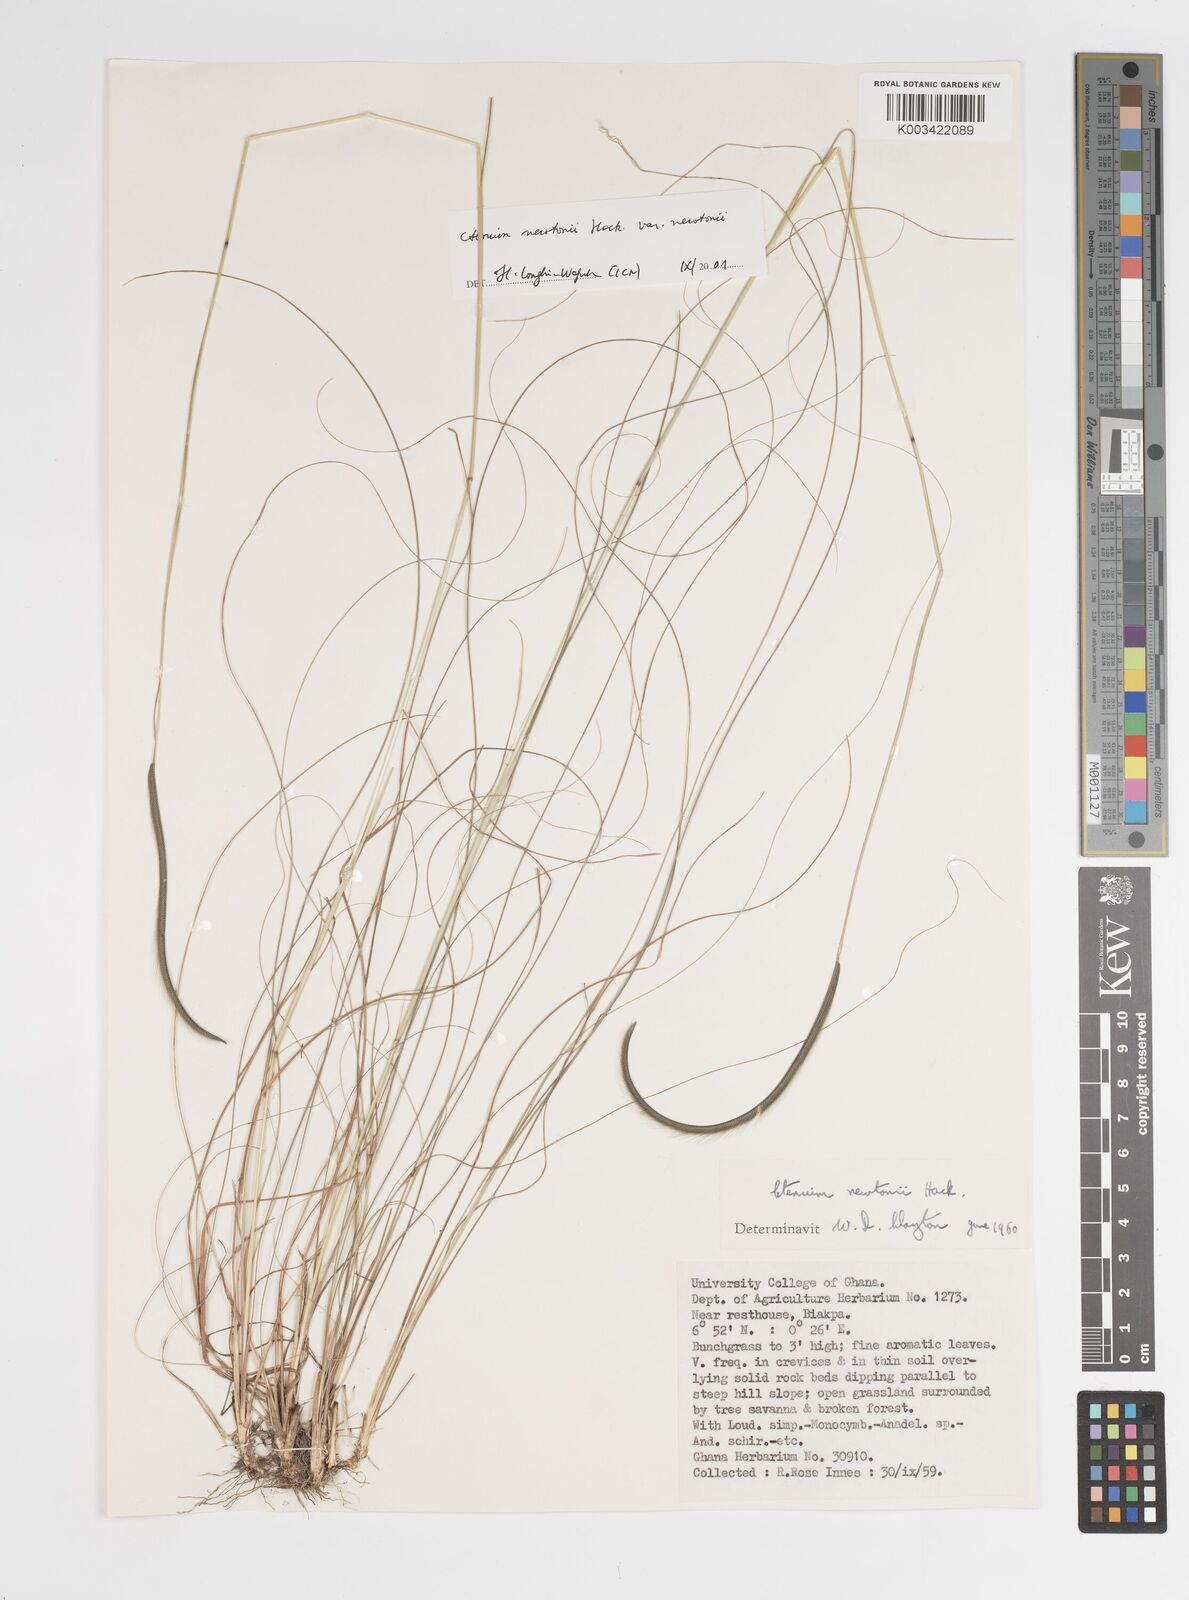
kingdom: Plantae
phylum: Tracheophyta
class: Liliopsida
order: Poales
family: Poaceae
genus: Ctenium
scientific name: Ctenium newtonii
